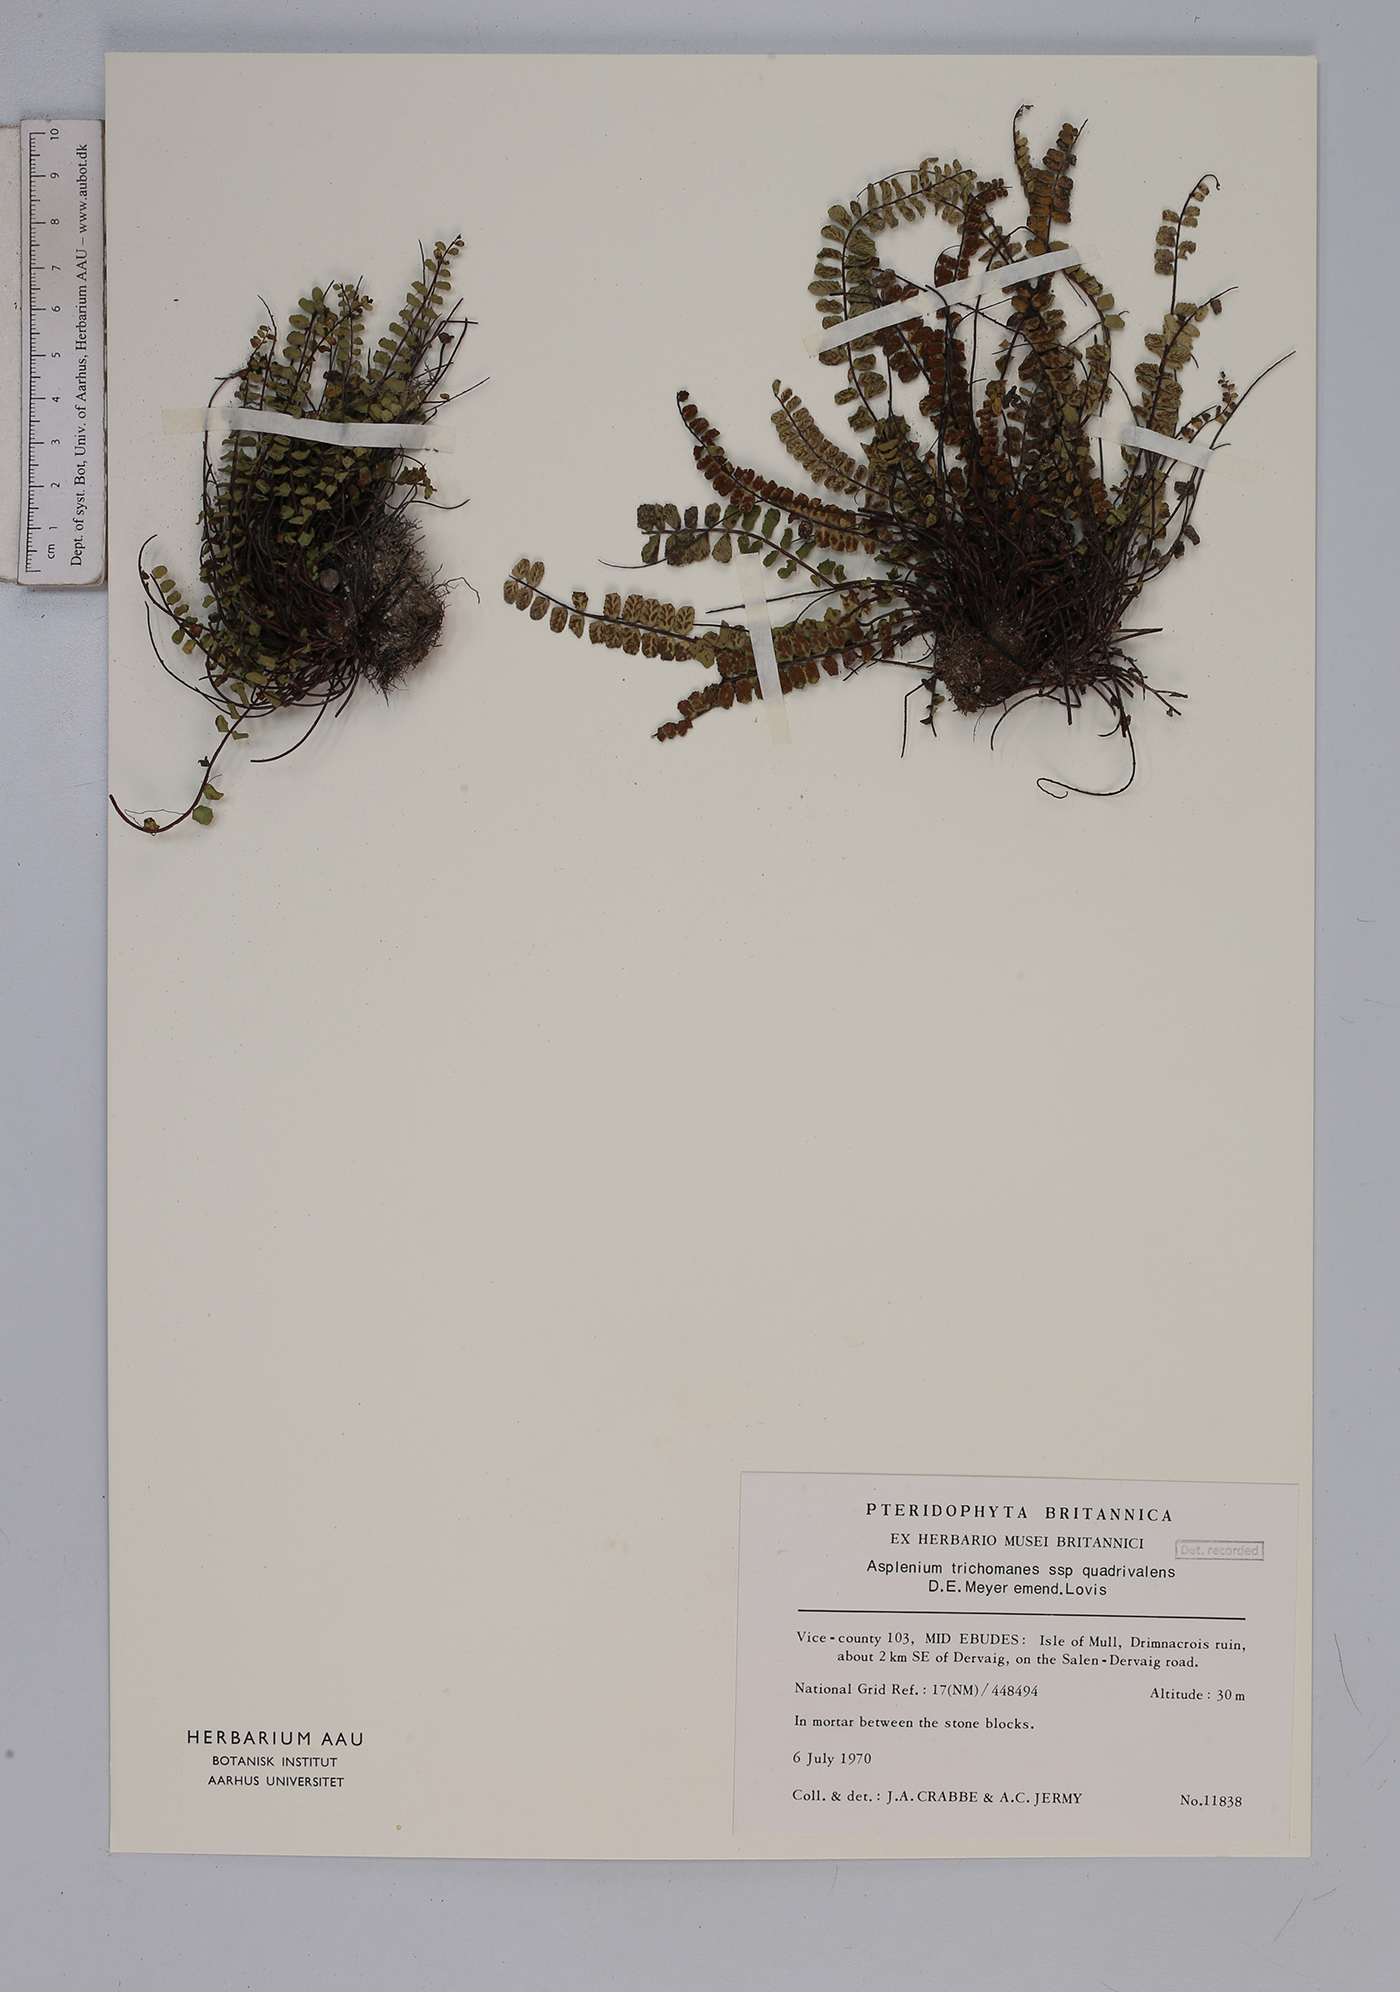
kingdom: Plantae
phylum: Tracheophyta
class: Polypodiopsida
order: Polypodiales
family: Aspleniaceae
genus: Asplenium
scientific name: Asplenium trichomanes
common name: Maidenhair spleenwort
